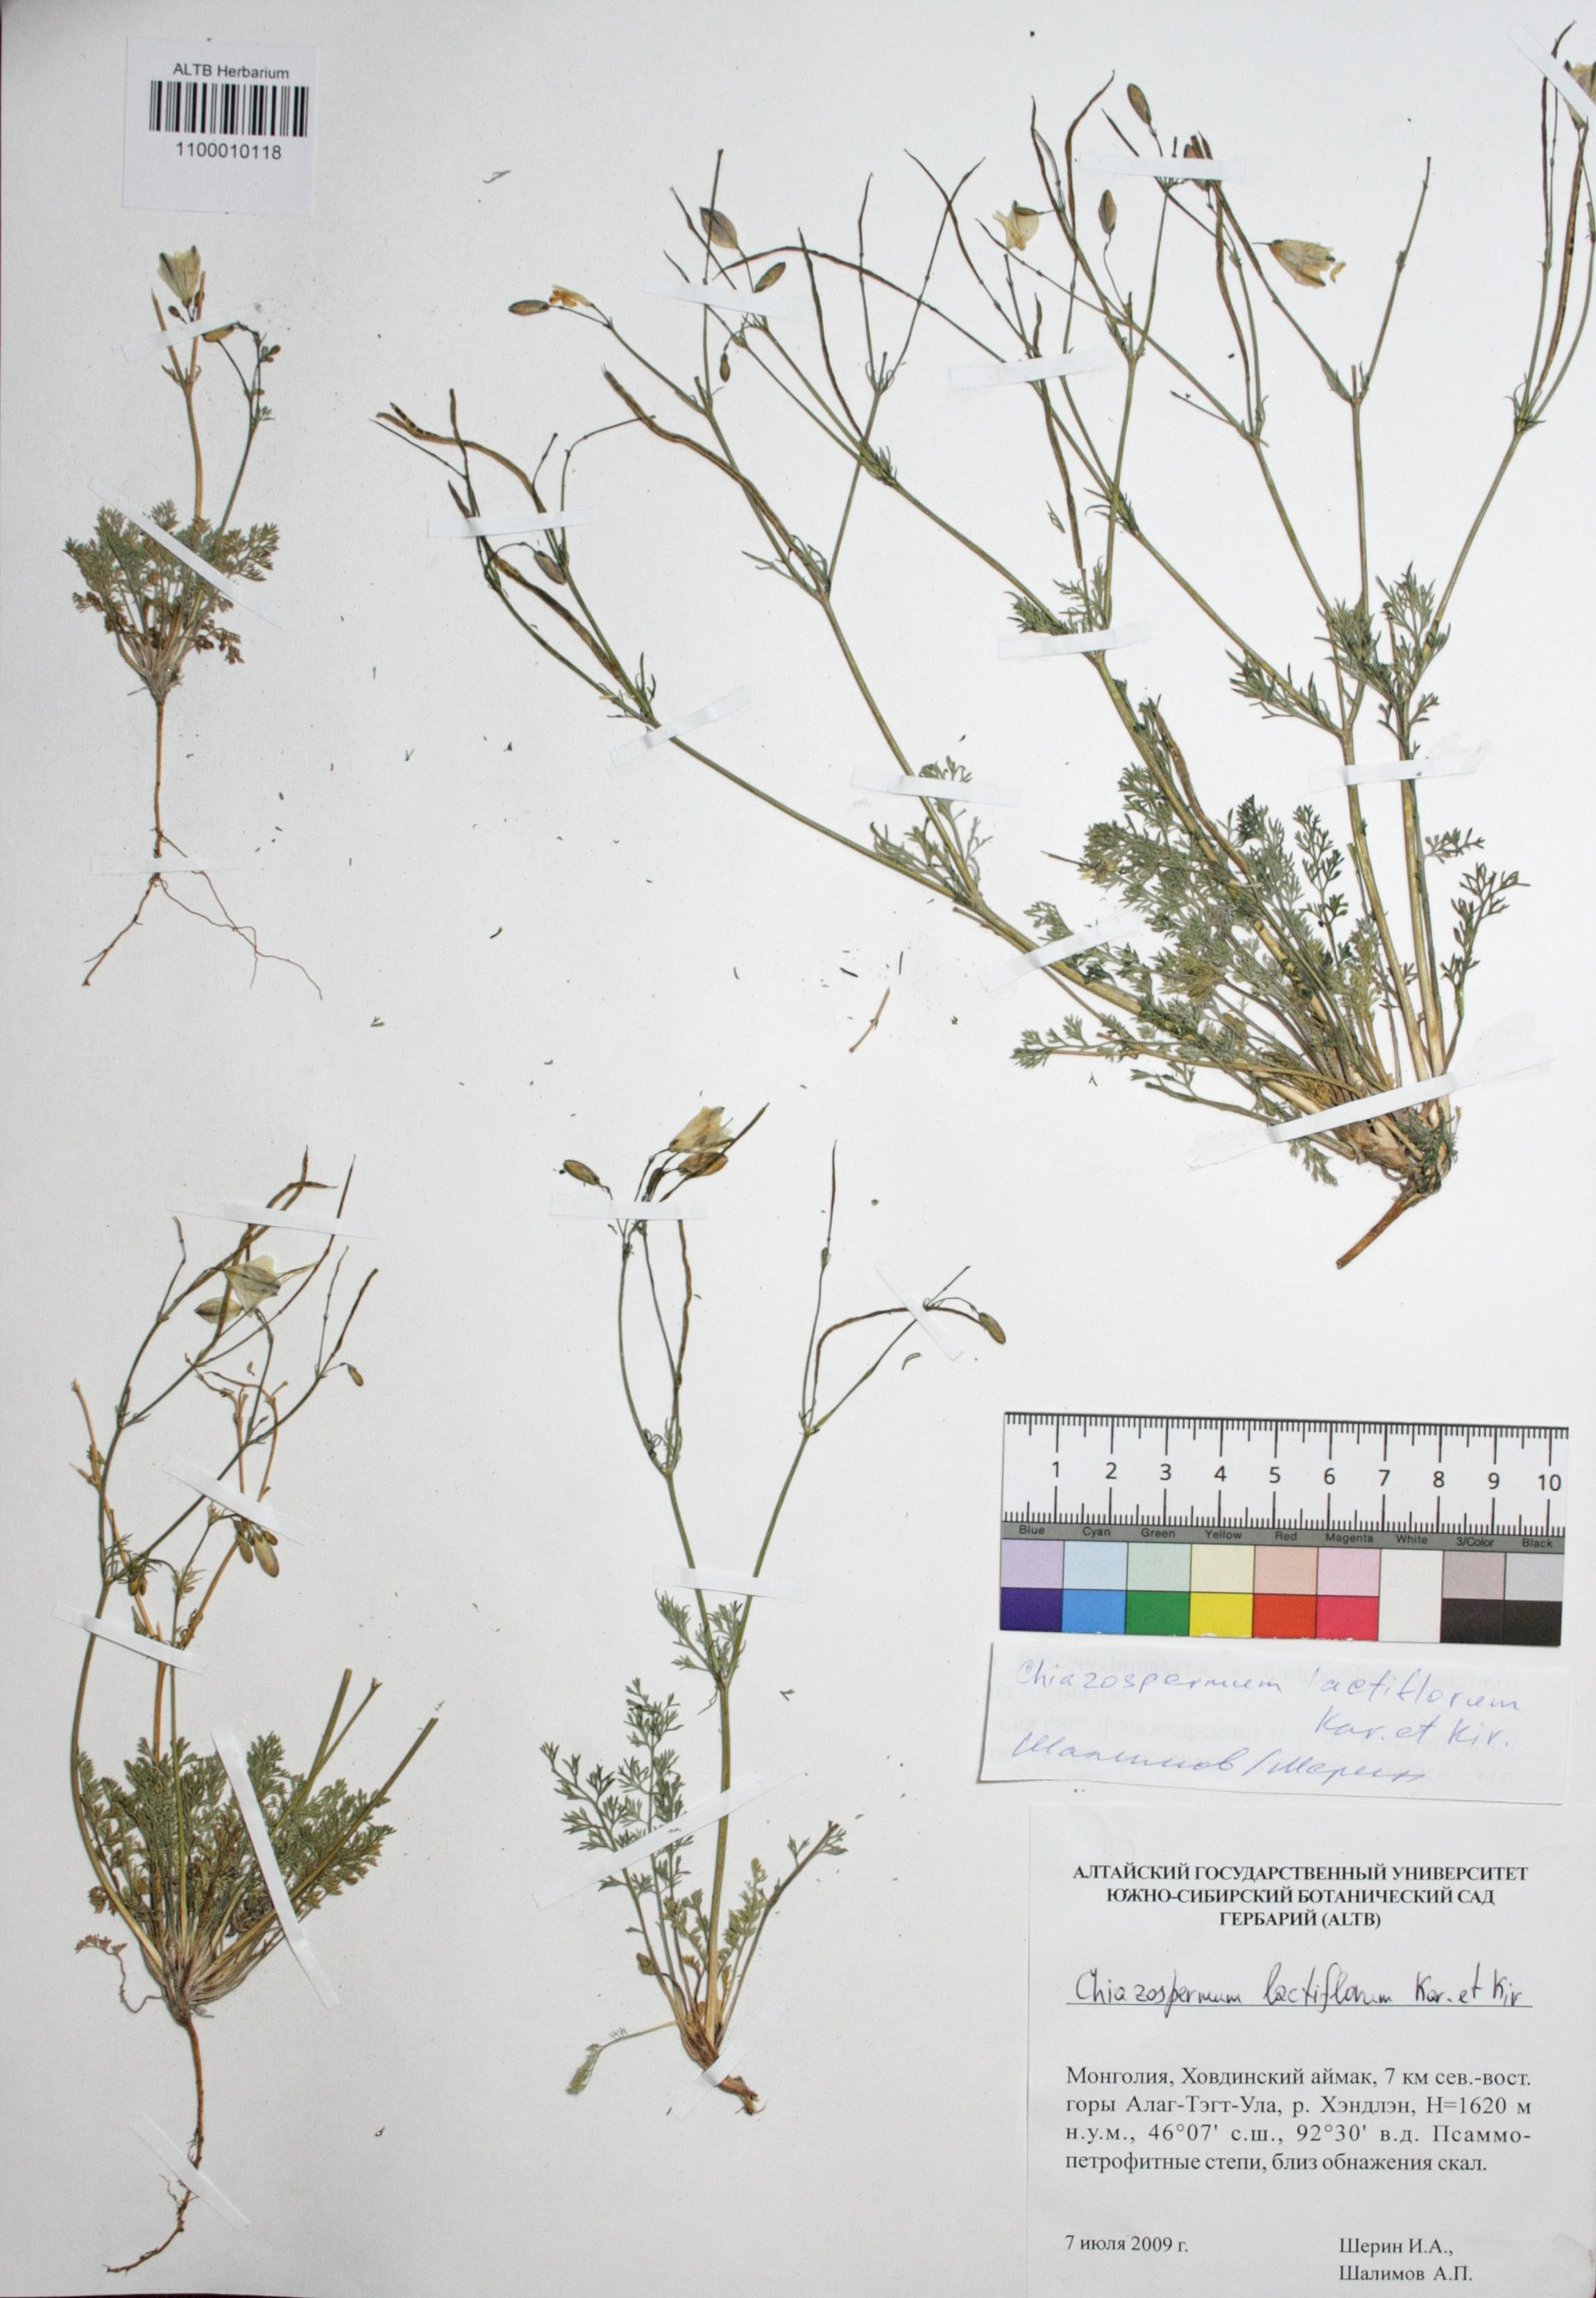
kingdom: Plantae
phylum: Tracheophyta
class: Magnoliopsida
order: Ranunculales
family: Papaveraceae
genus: Hypecoum
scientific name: Hypecoum lactiflorum
